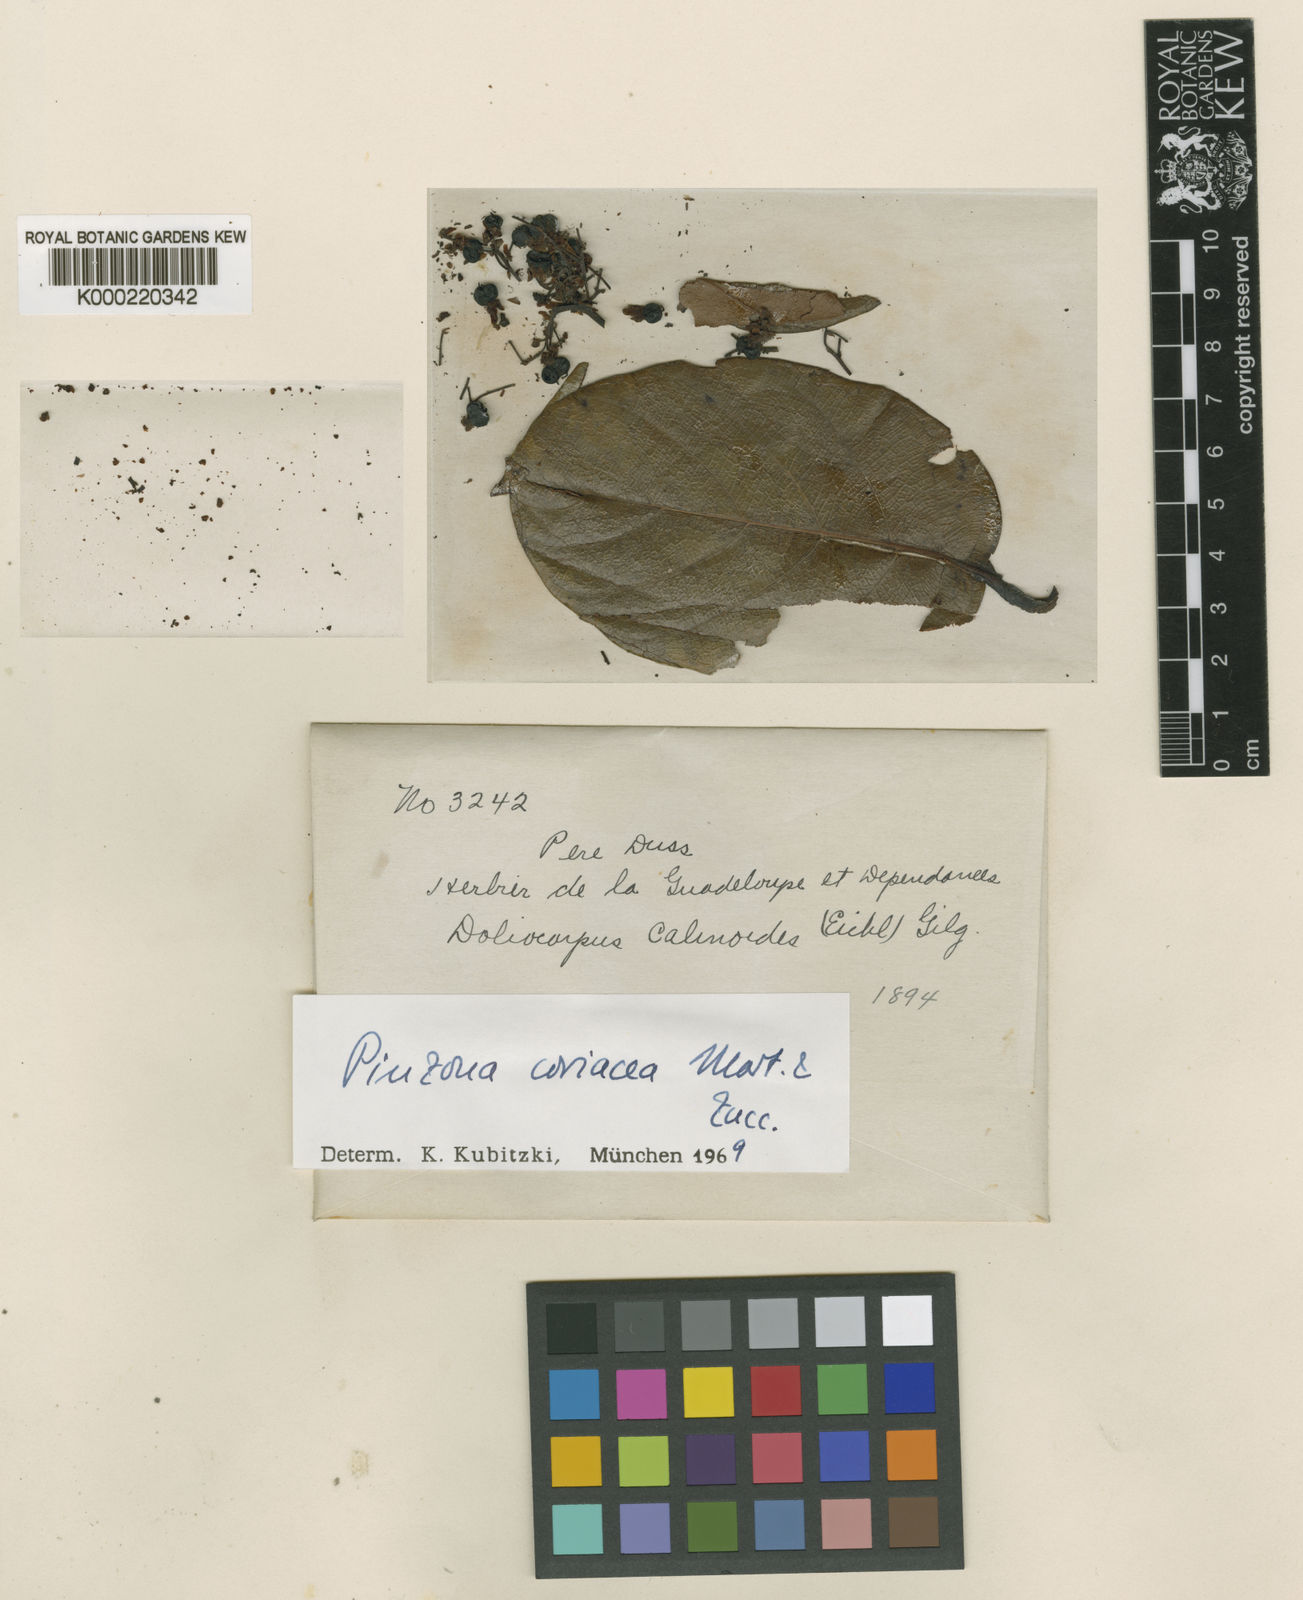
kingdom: Plantae
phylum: Tracheophyta
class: Magnoliopsida
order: Dilleniales
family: Dilleniaceae
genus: Pinzona
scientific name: Pinzona coriacea
